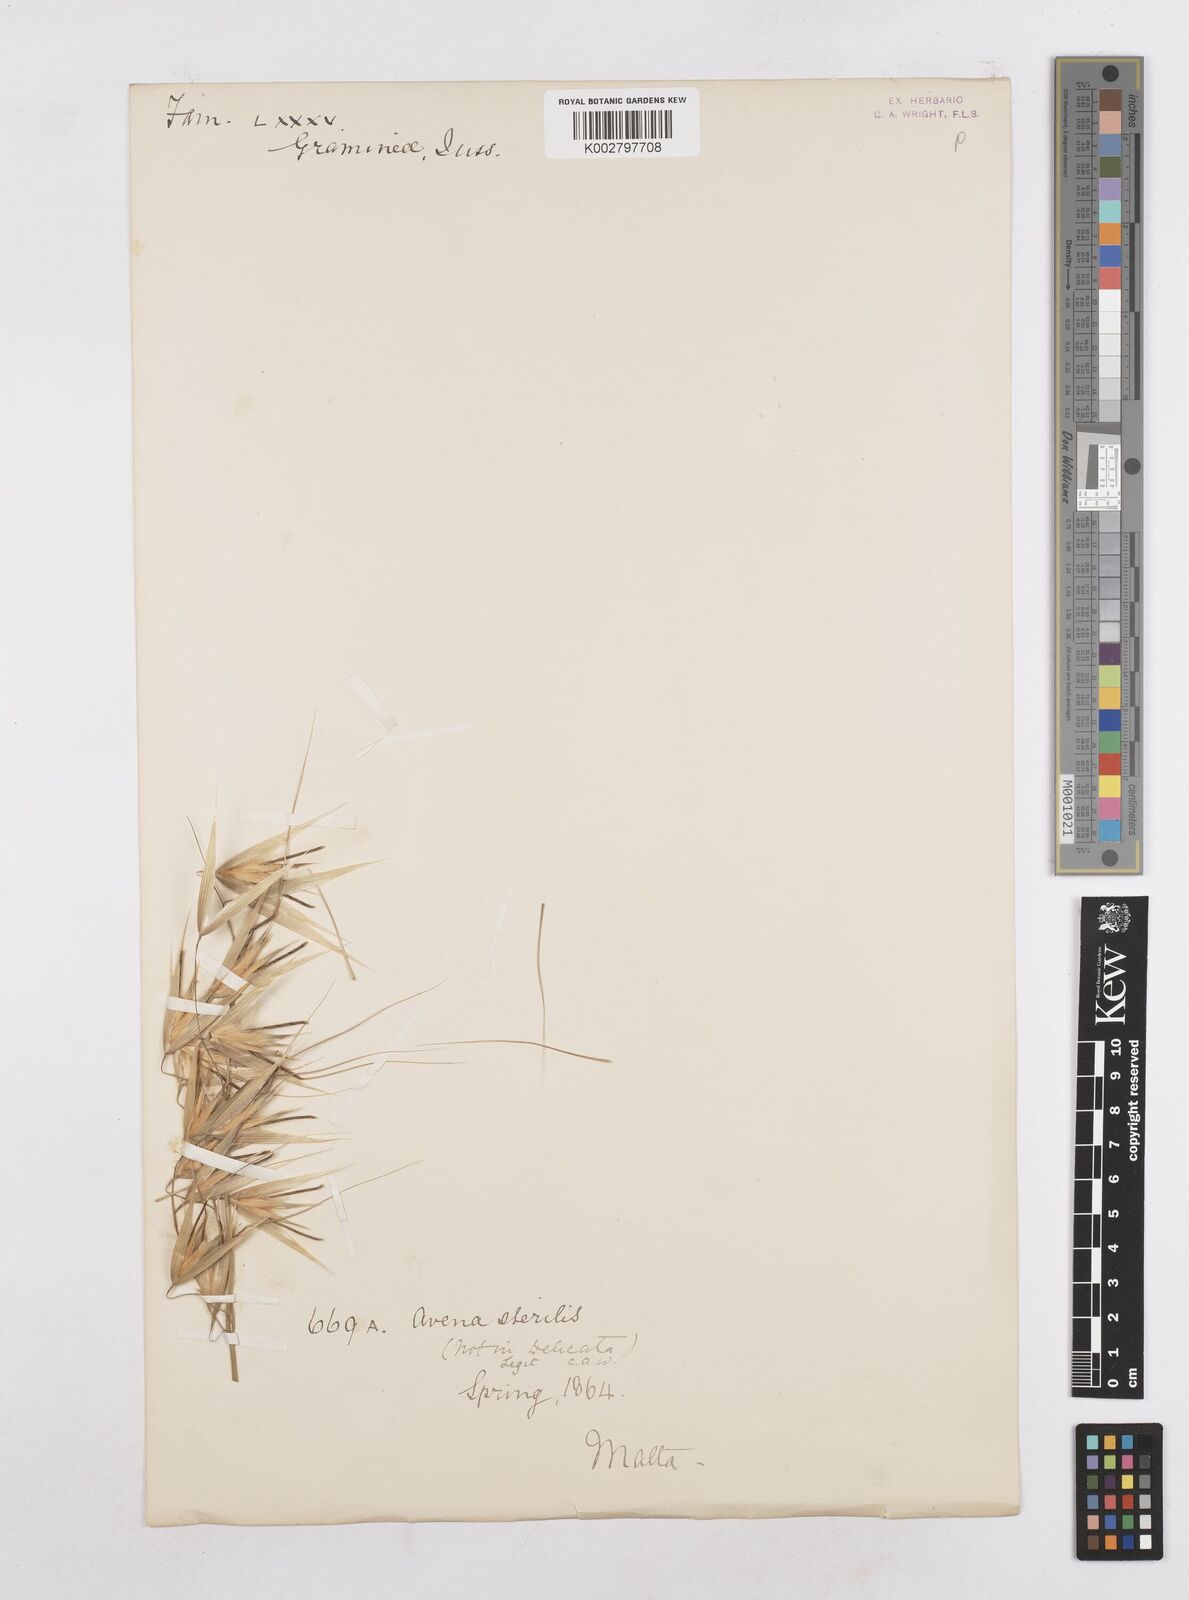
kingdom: Plantae
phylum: Tracheophyta
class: Liliopsida
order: Poales
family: Poaceae
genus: Avena
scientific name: Avena sterilis
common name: Animated oat
